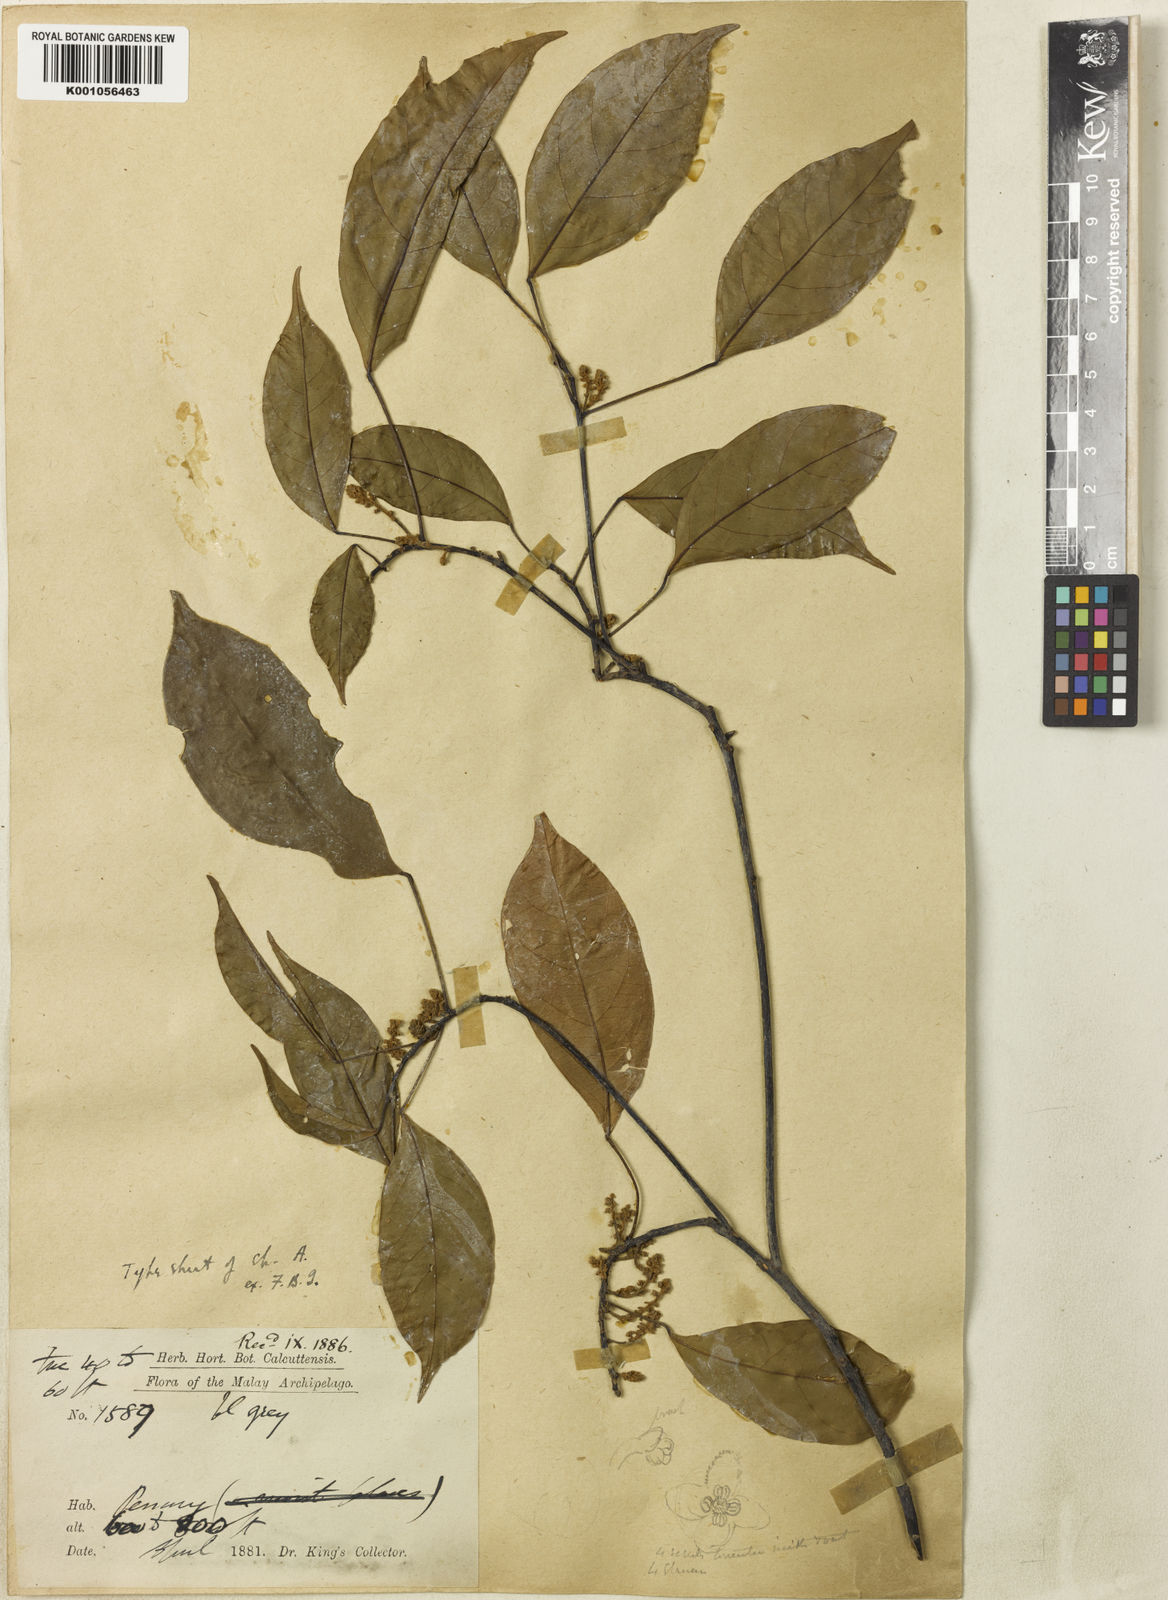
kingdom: Plantae
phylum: Tracheophyta
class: Magnoliopsida
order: Malpighiales
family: Phyllanthaceae
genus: Baccaurea
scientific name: Baccaurea
